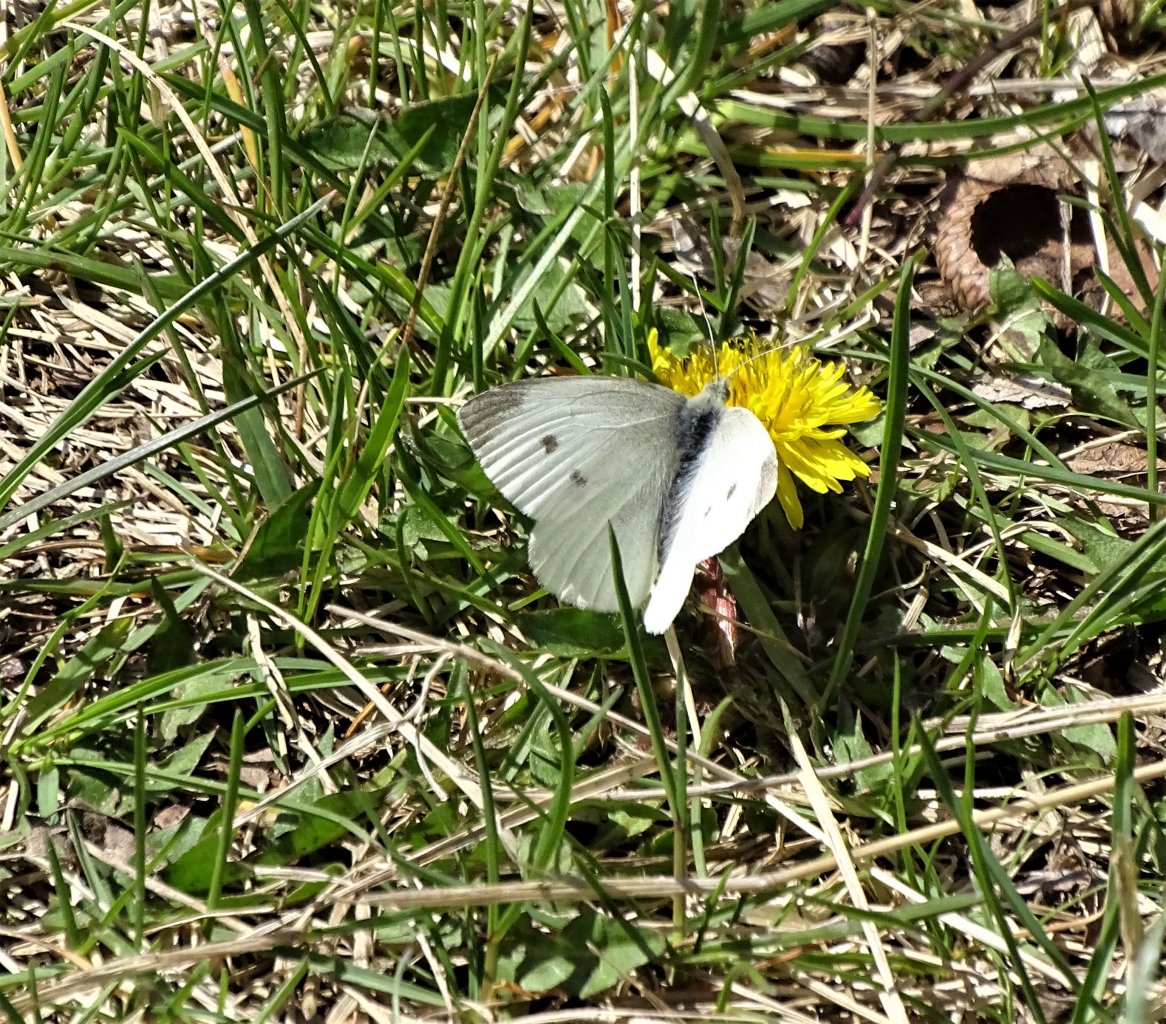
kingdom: Animalia
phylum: Arthropoda
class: Insecta
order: Lepidoptera
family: Pieridae
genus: Pieris
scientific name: Pieris rapae
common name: Cabbage White
